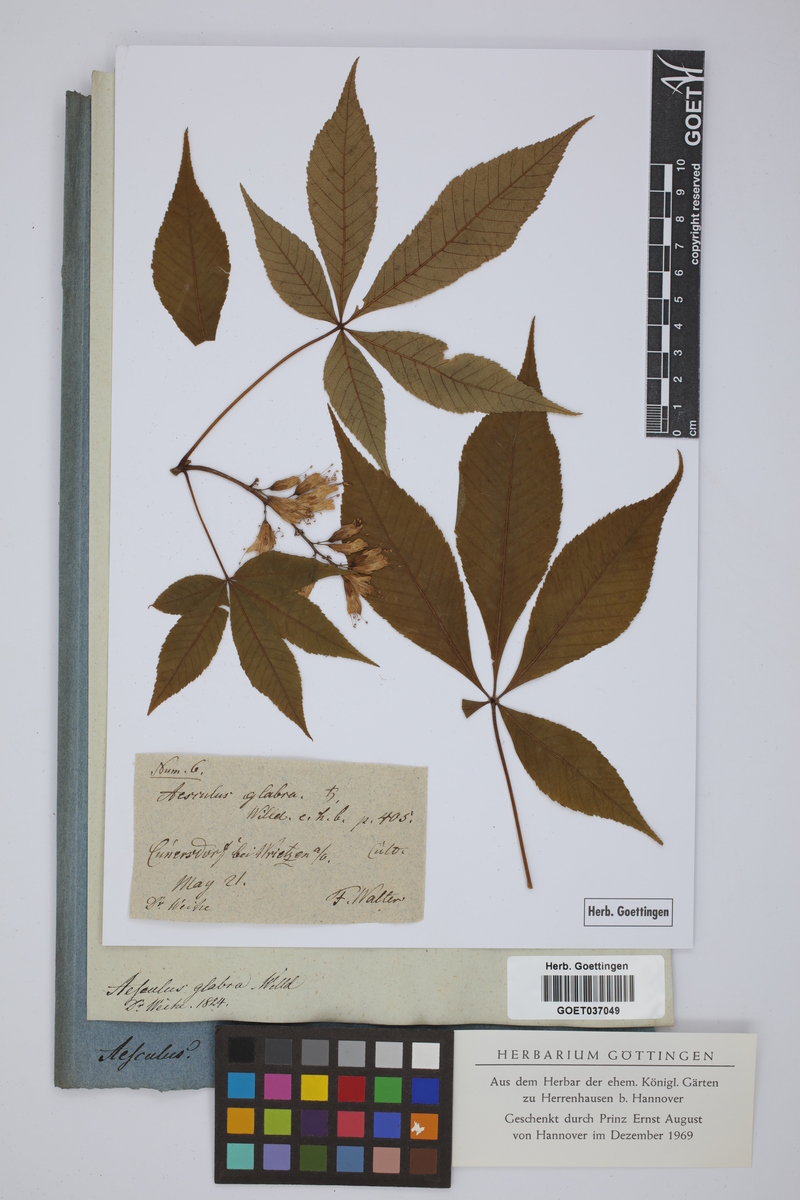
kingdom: Plantae
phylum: Tracheophyta
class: Magnoliopsida
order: Sapindales
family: Sapindaceae
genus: Aesculus
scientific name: Aesculus glabra
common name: Ohio buckeye
